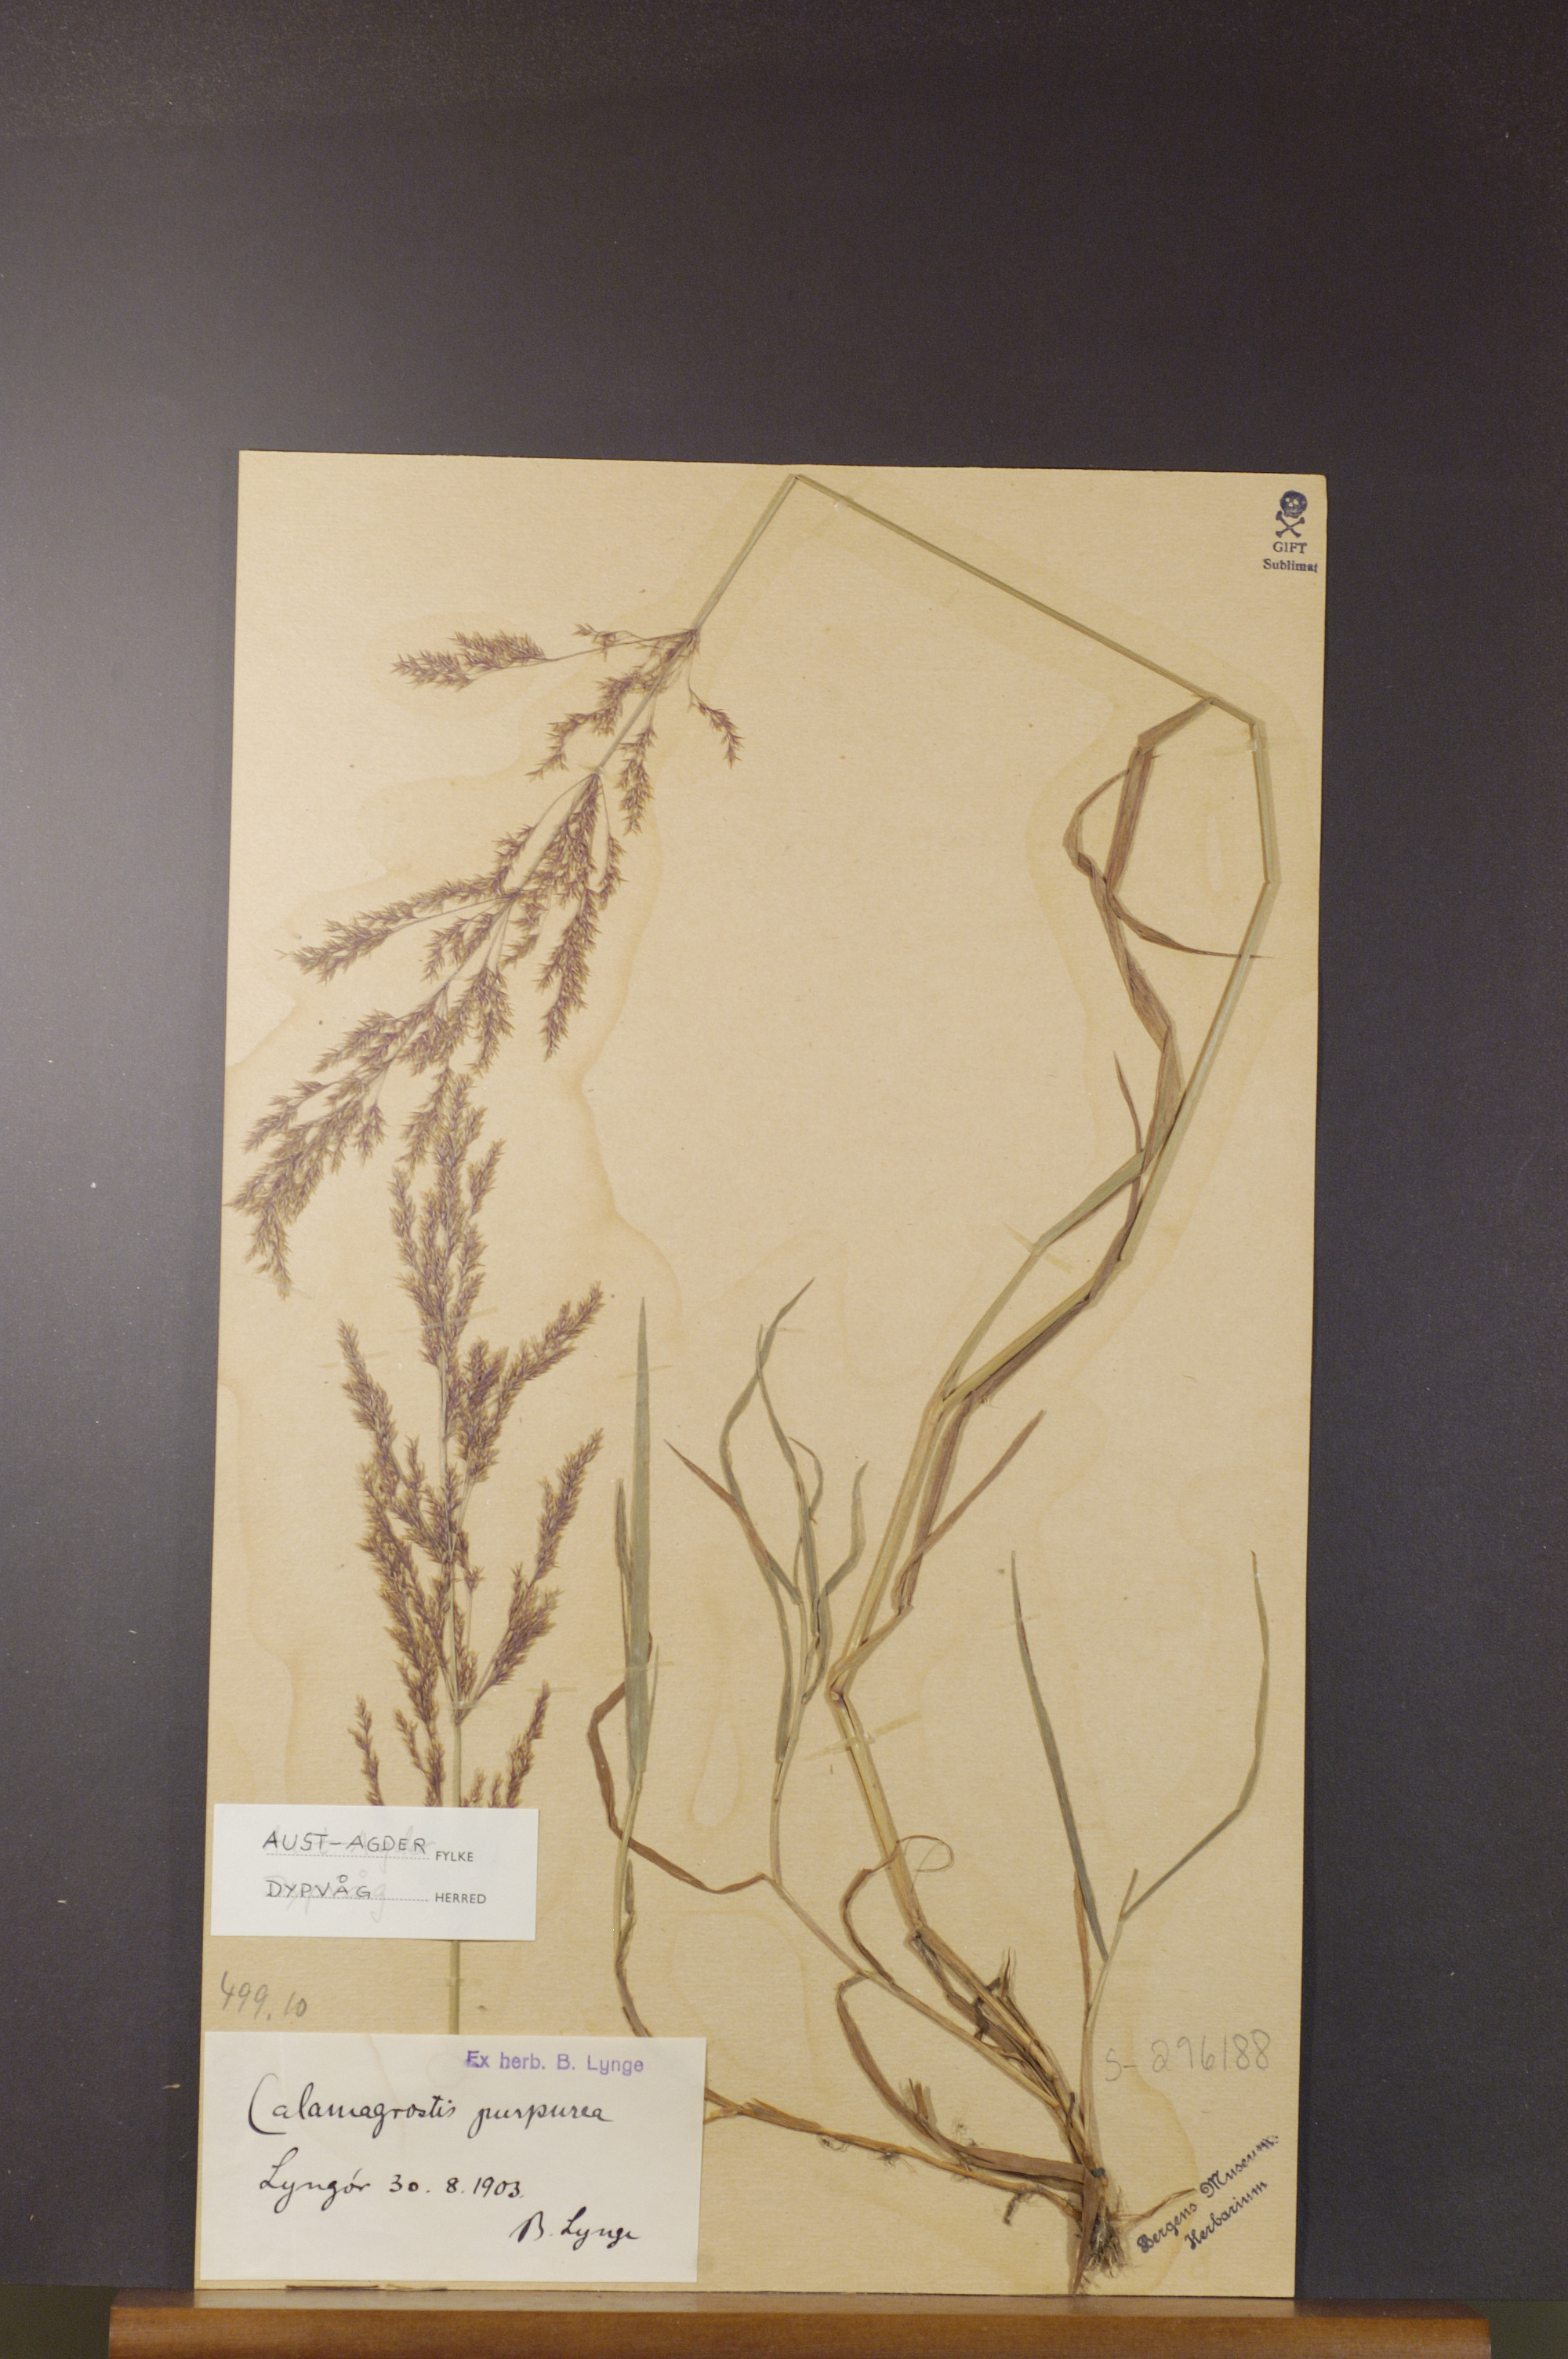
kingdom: Plantae
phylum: Tracheophyta
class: Liliopsida
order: Poales
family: Poaceae
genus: Calamagrostis
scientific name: Calamagrostis purpurea
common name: Scandinavian small-reed
